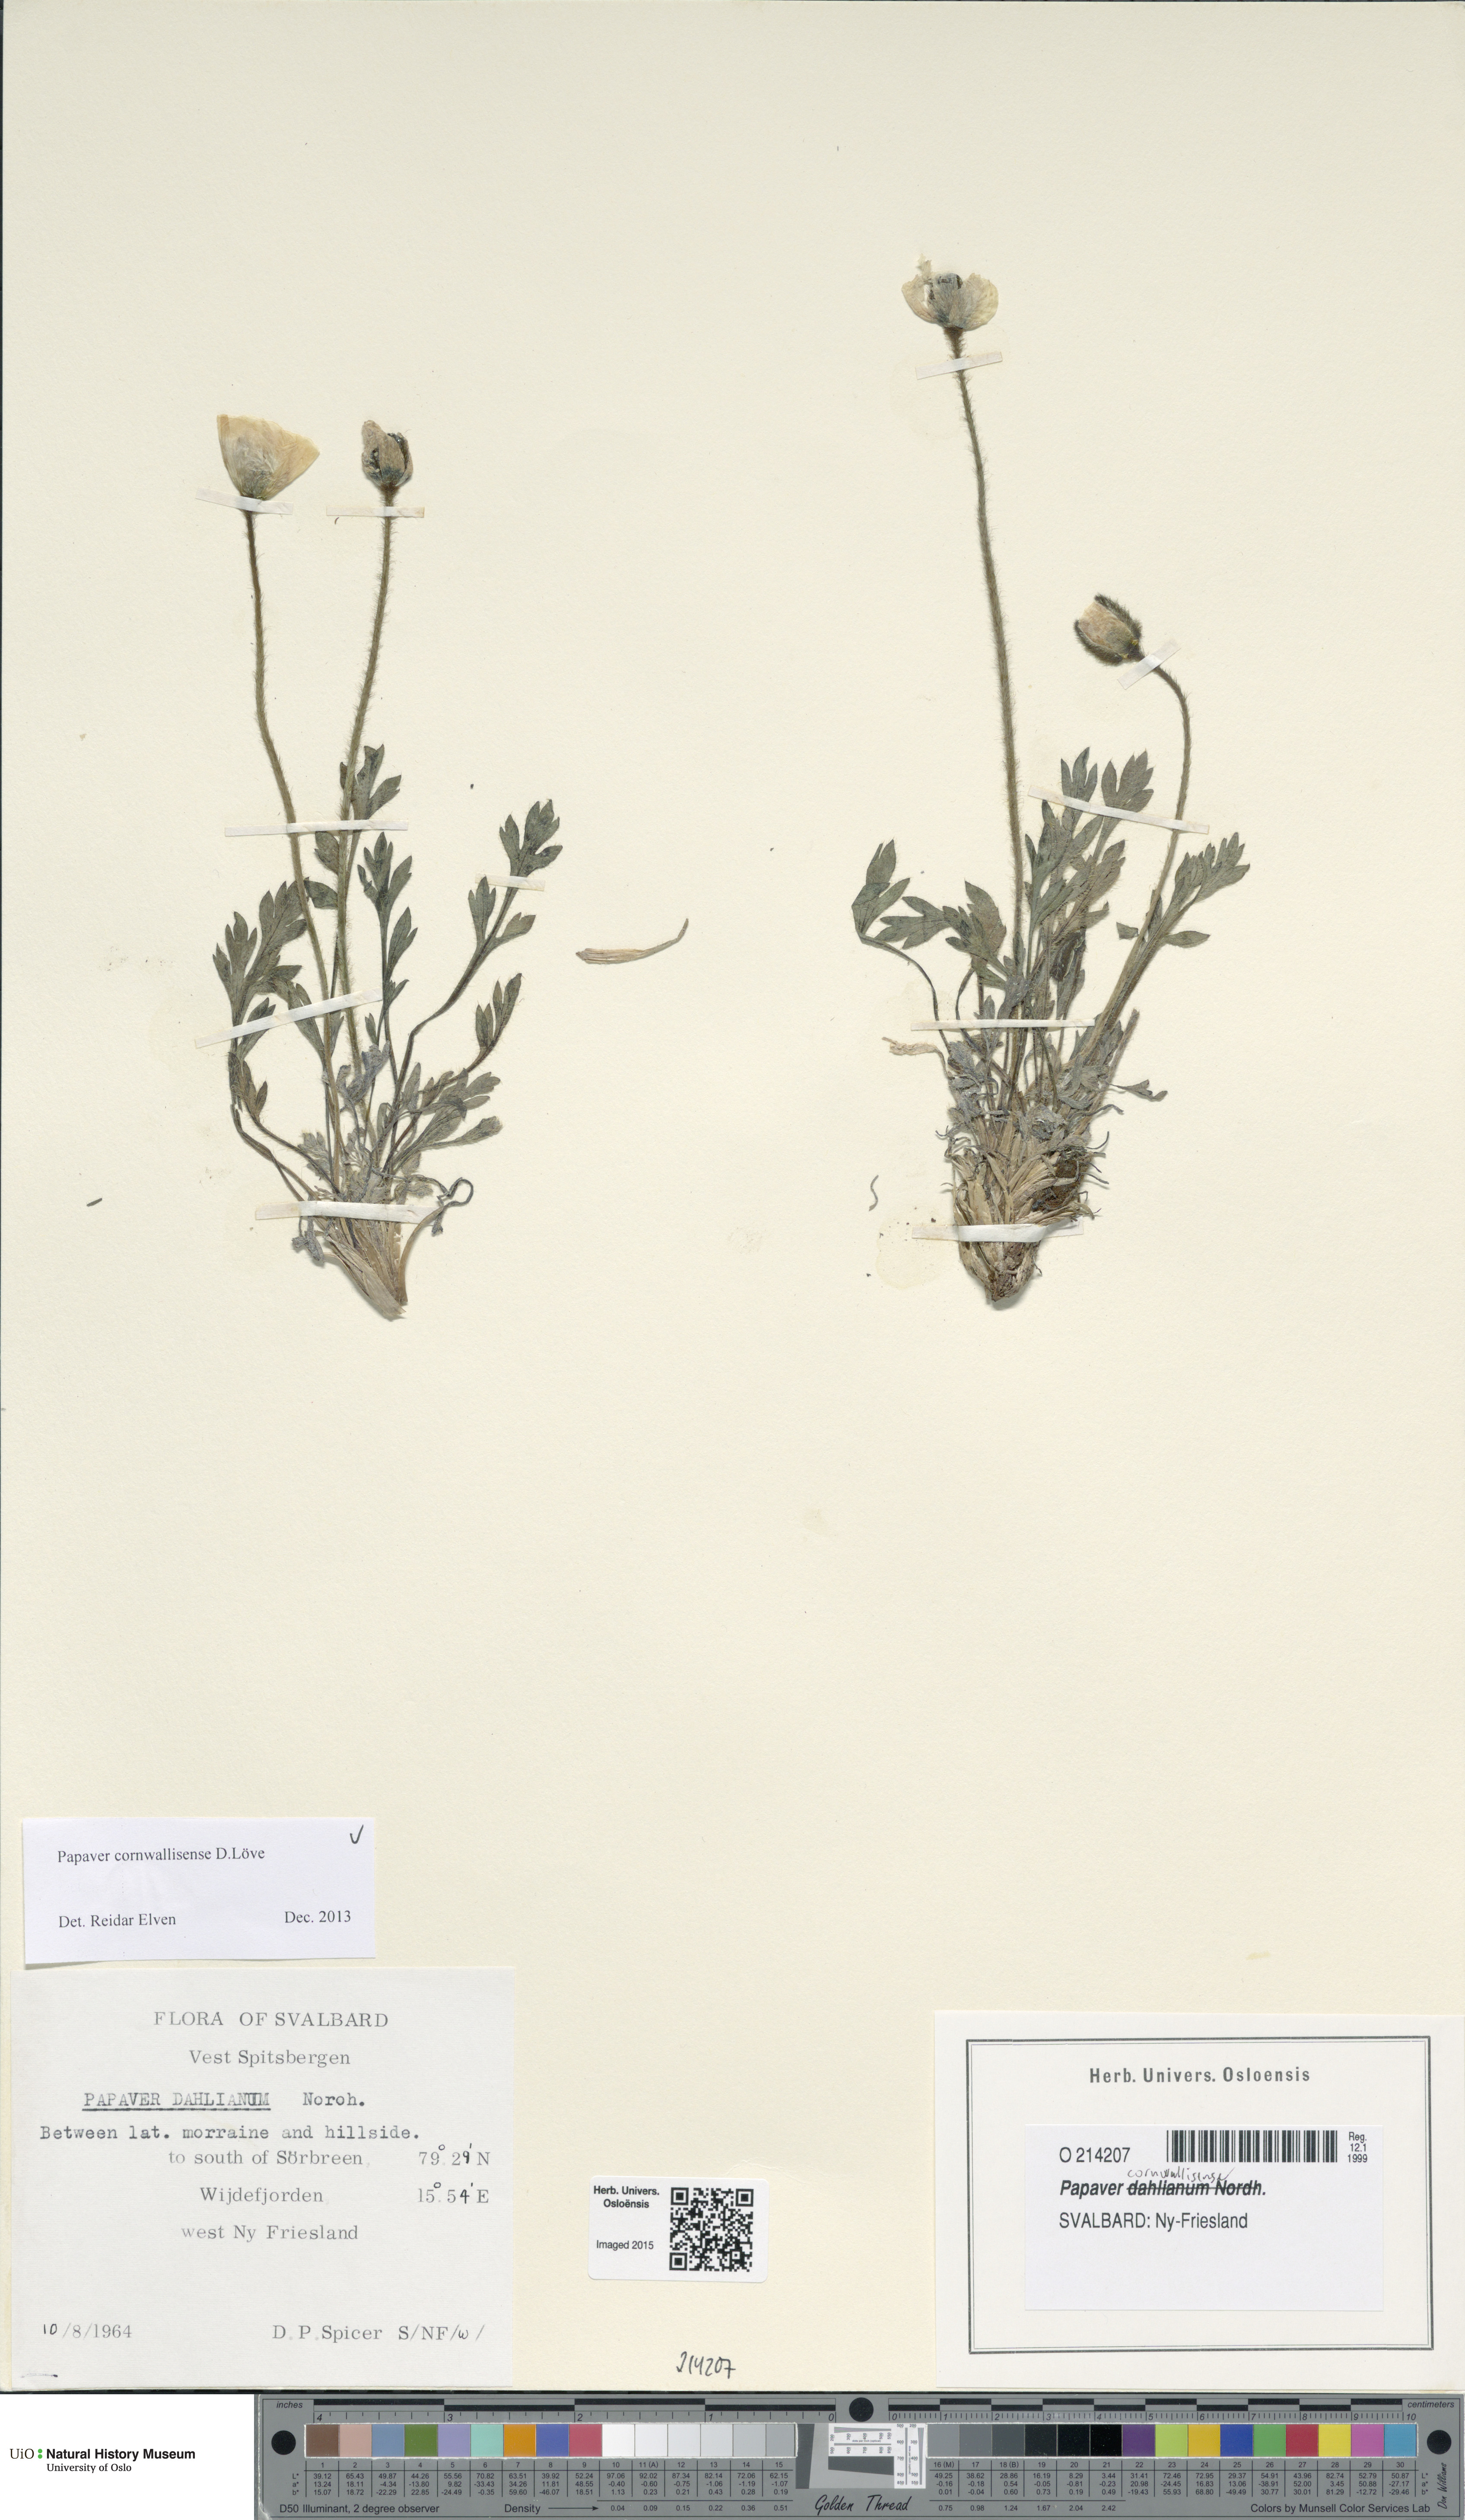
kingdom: Plantae
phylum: Tracheophyta
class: Magnoliopsida
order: Ranunculales
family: Papaveraceae
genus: Papaver
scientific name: Papaver radicatum
